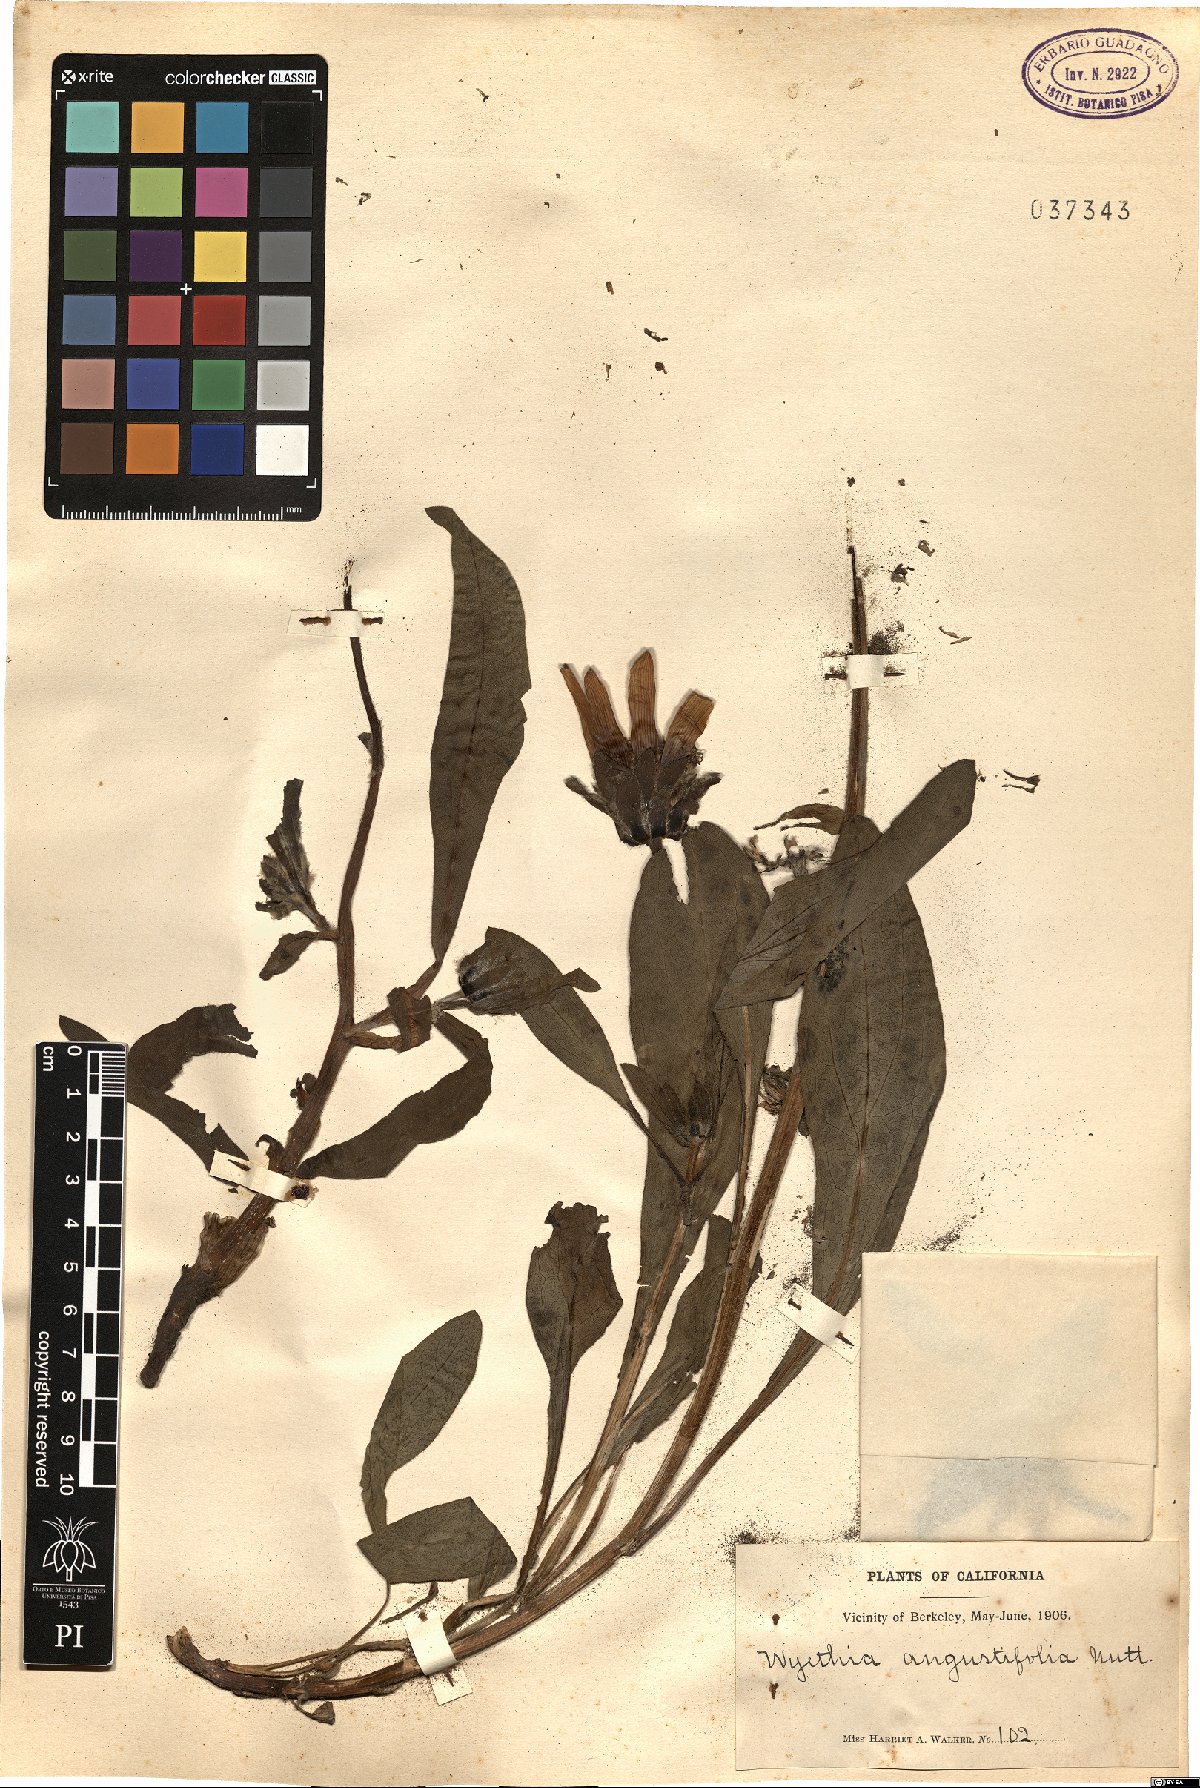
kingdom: Plantae
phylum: Tracheophyta
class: Magnoliopsida
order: Asterales
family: Asteraceae
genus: Wyethia
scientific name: Wyethia angustifolia
